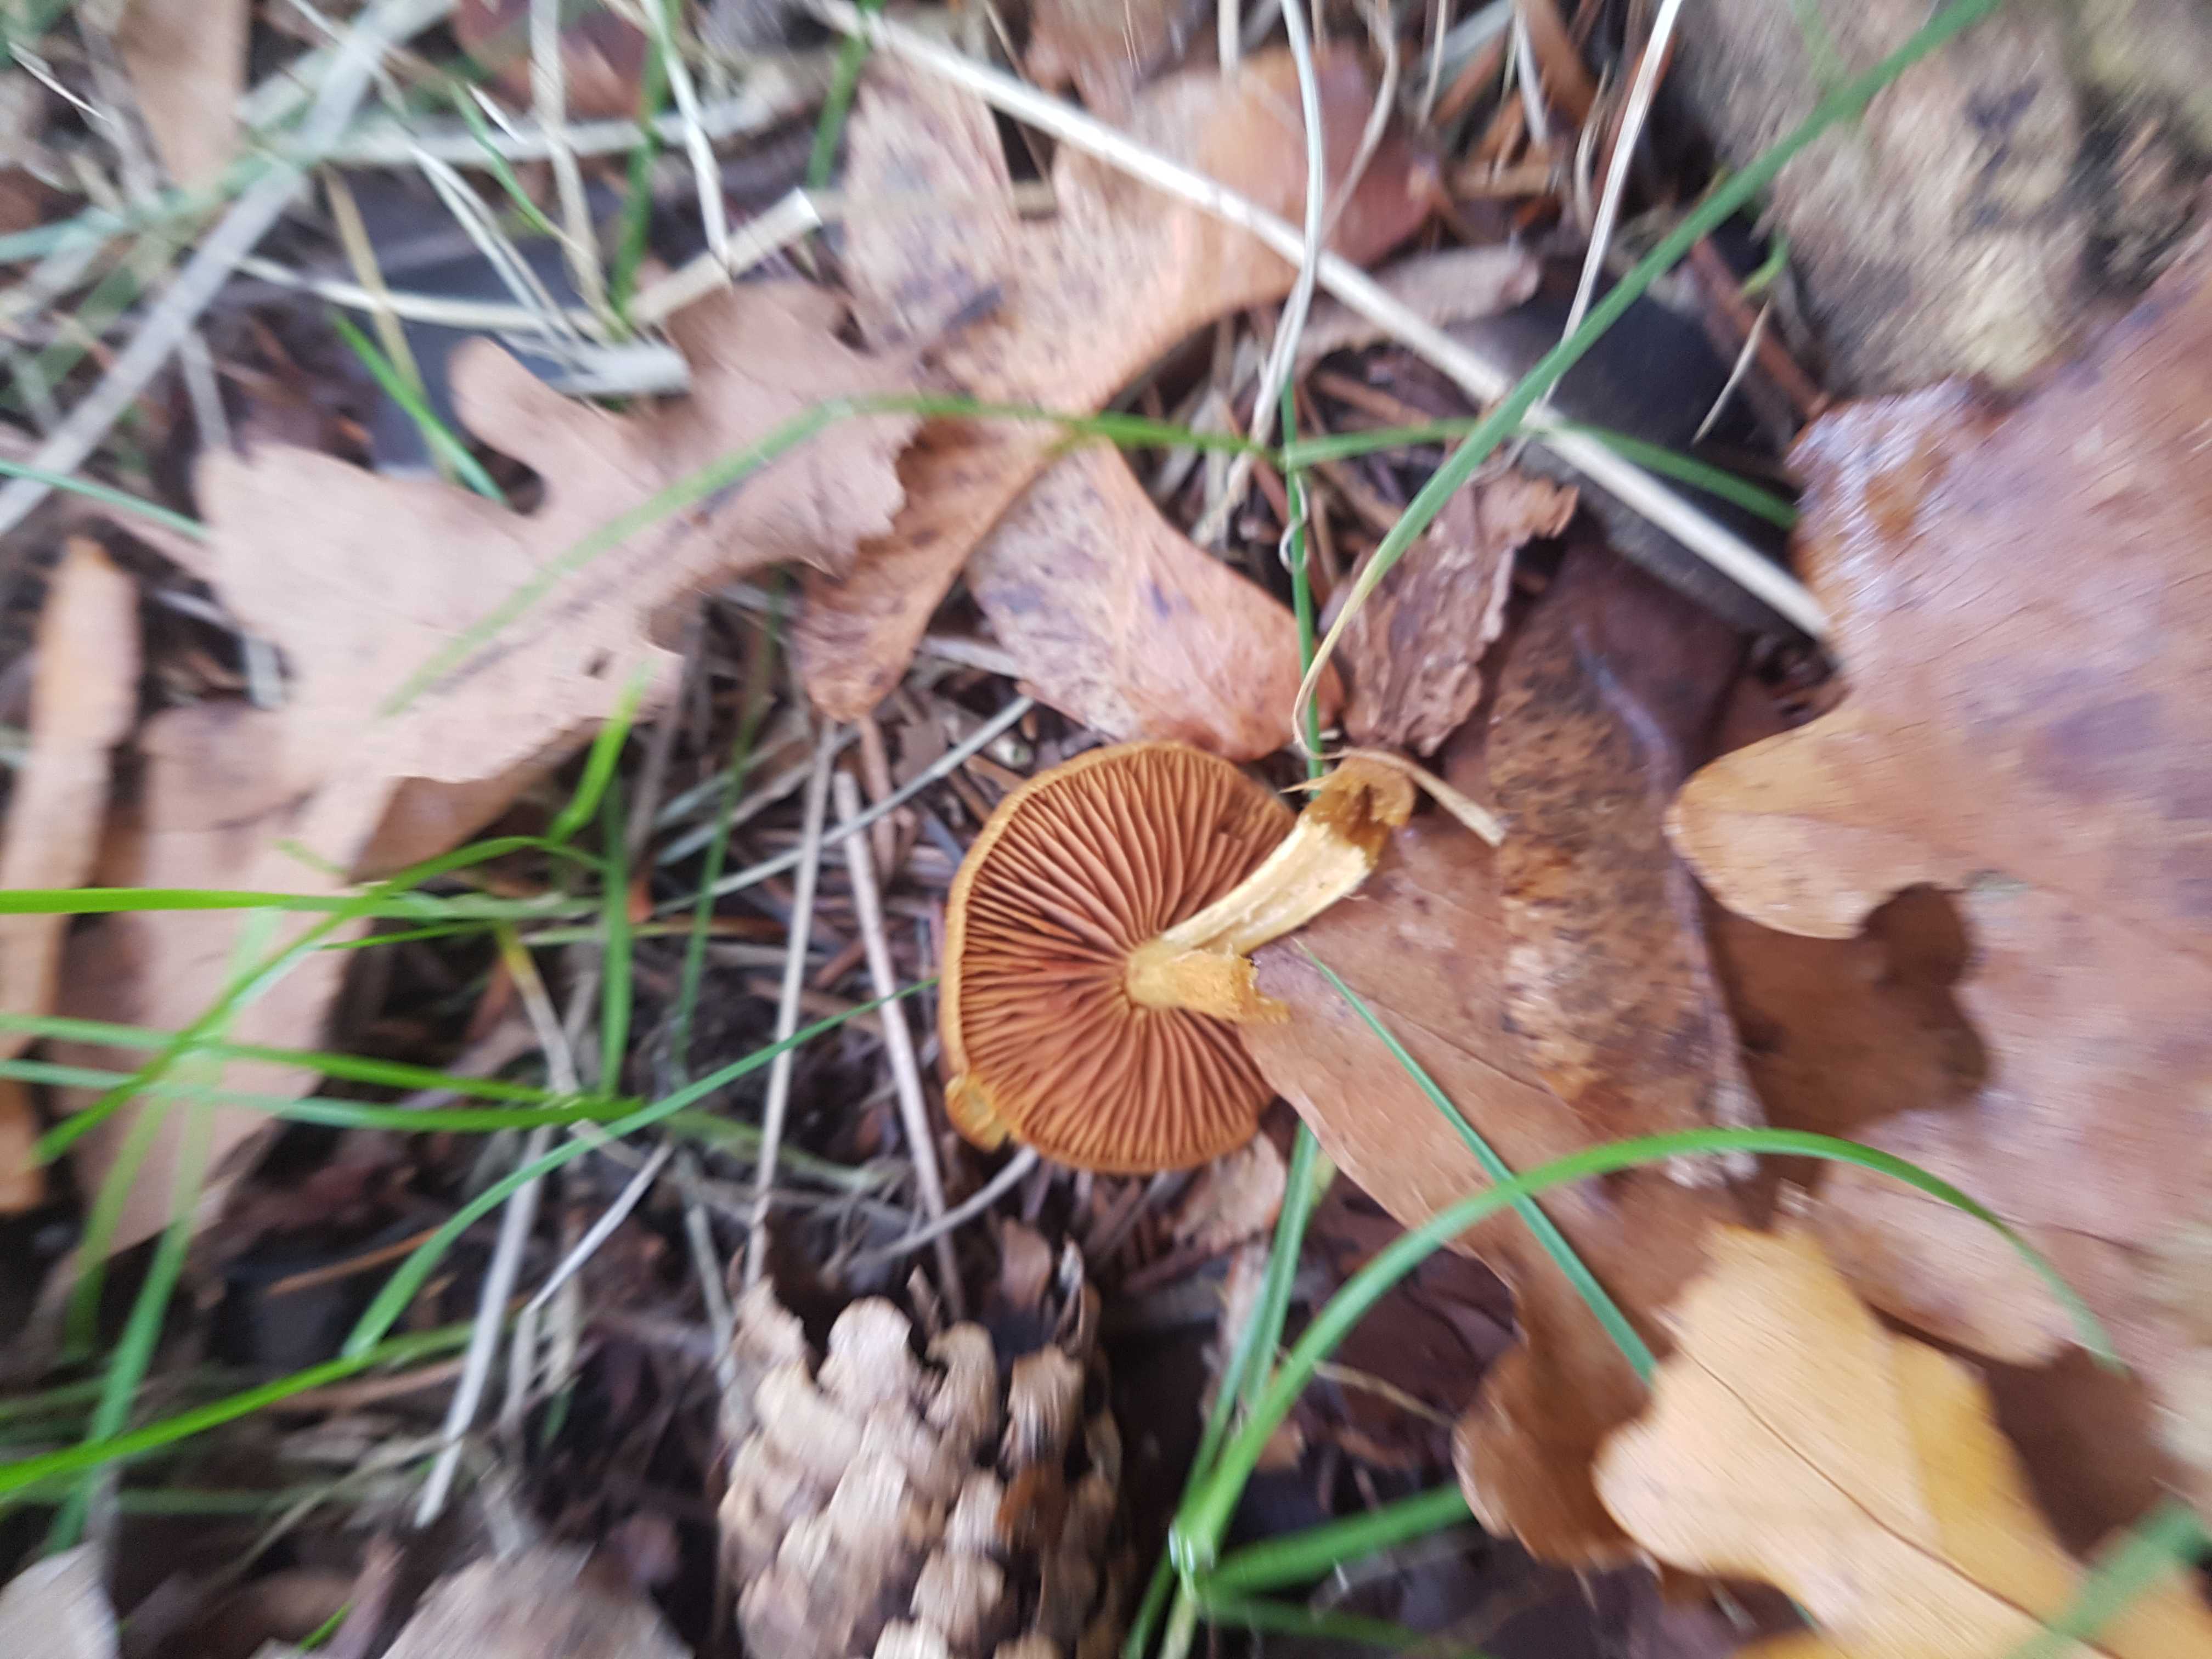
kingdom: Fungi
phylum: Basidiomycota
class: Agaricomycetes
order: Agaricales
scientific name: Agaricales
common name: champignonordenen
